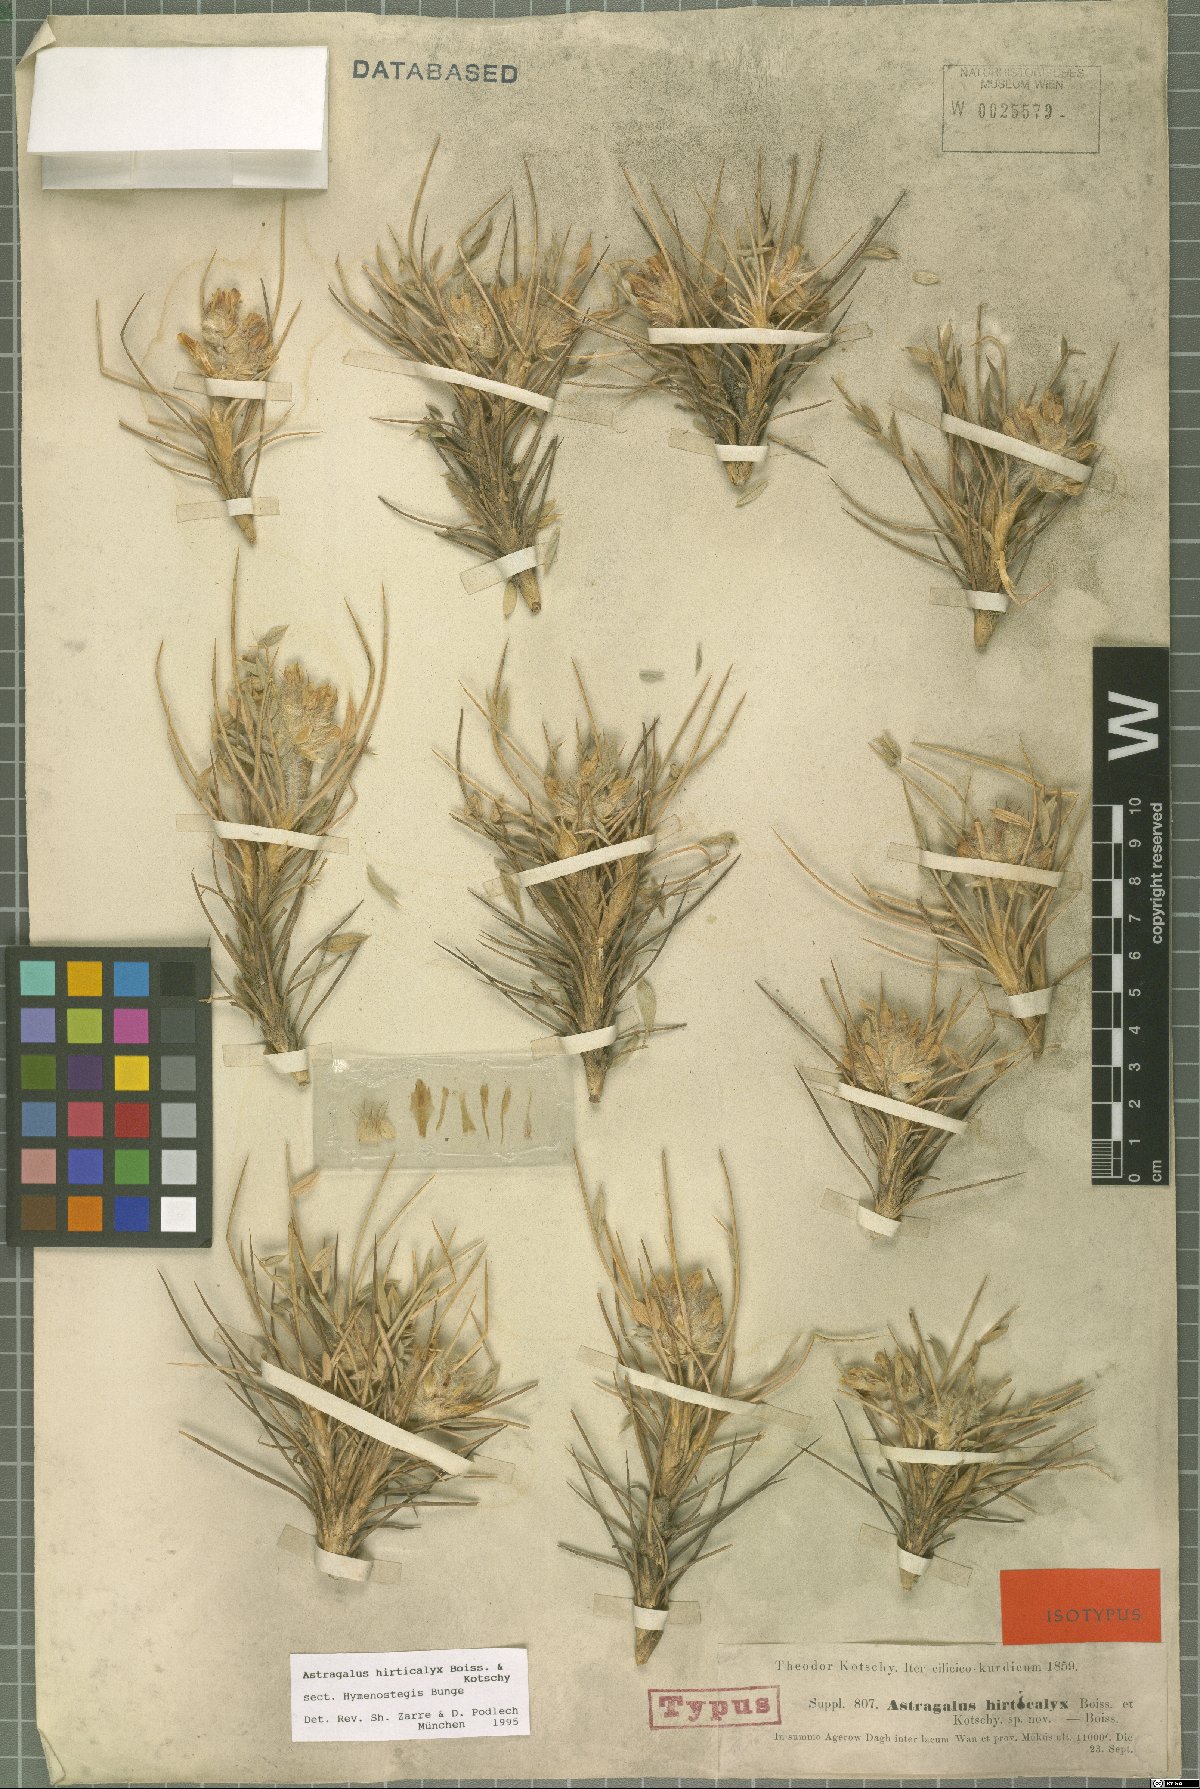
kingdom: Plantae
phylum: Tracheophyta
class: Magnoliopsida
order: Fabales
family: Fabaceae
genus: Astragalus
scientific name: Astragalus hirticalyx
